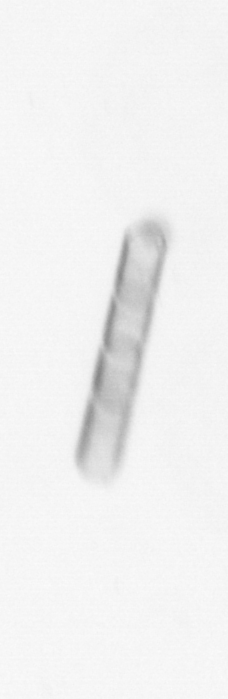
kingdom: Chromista
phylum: Ochrophyta
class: Bacillariophyceae
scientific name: Bacillariophyceae
